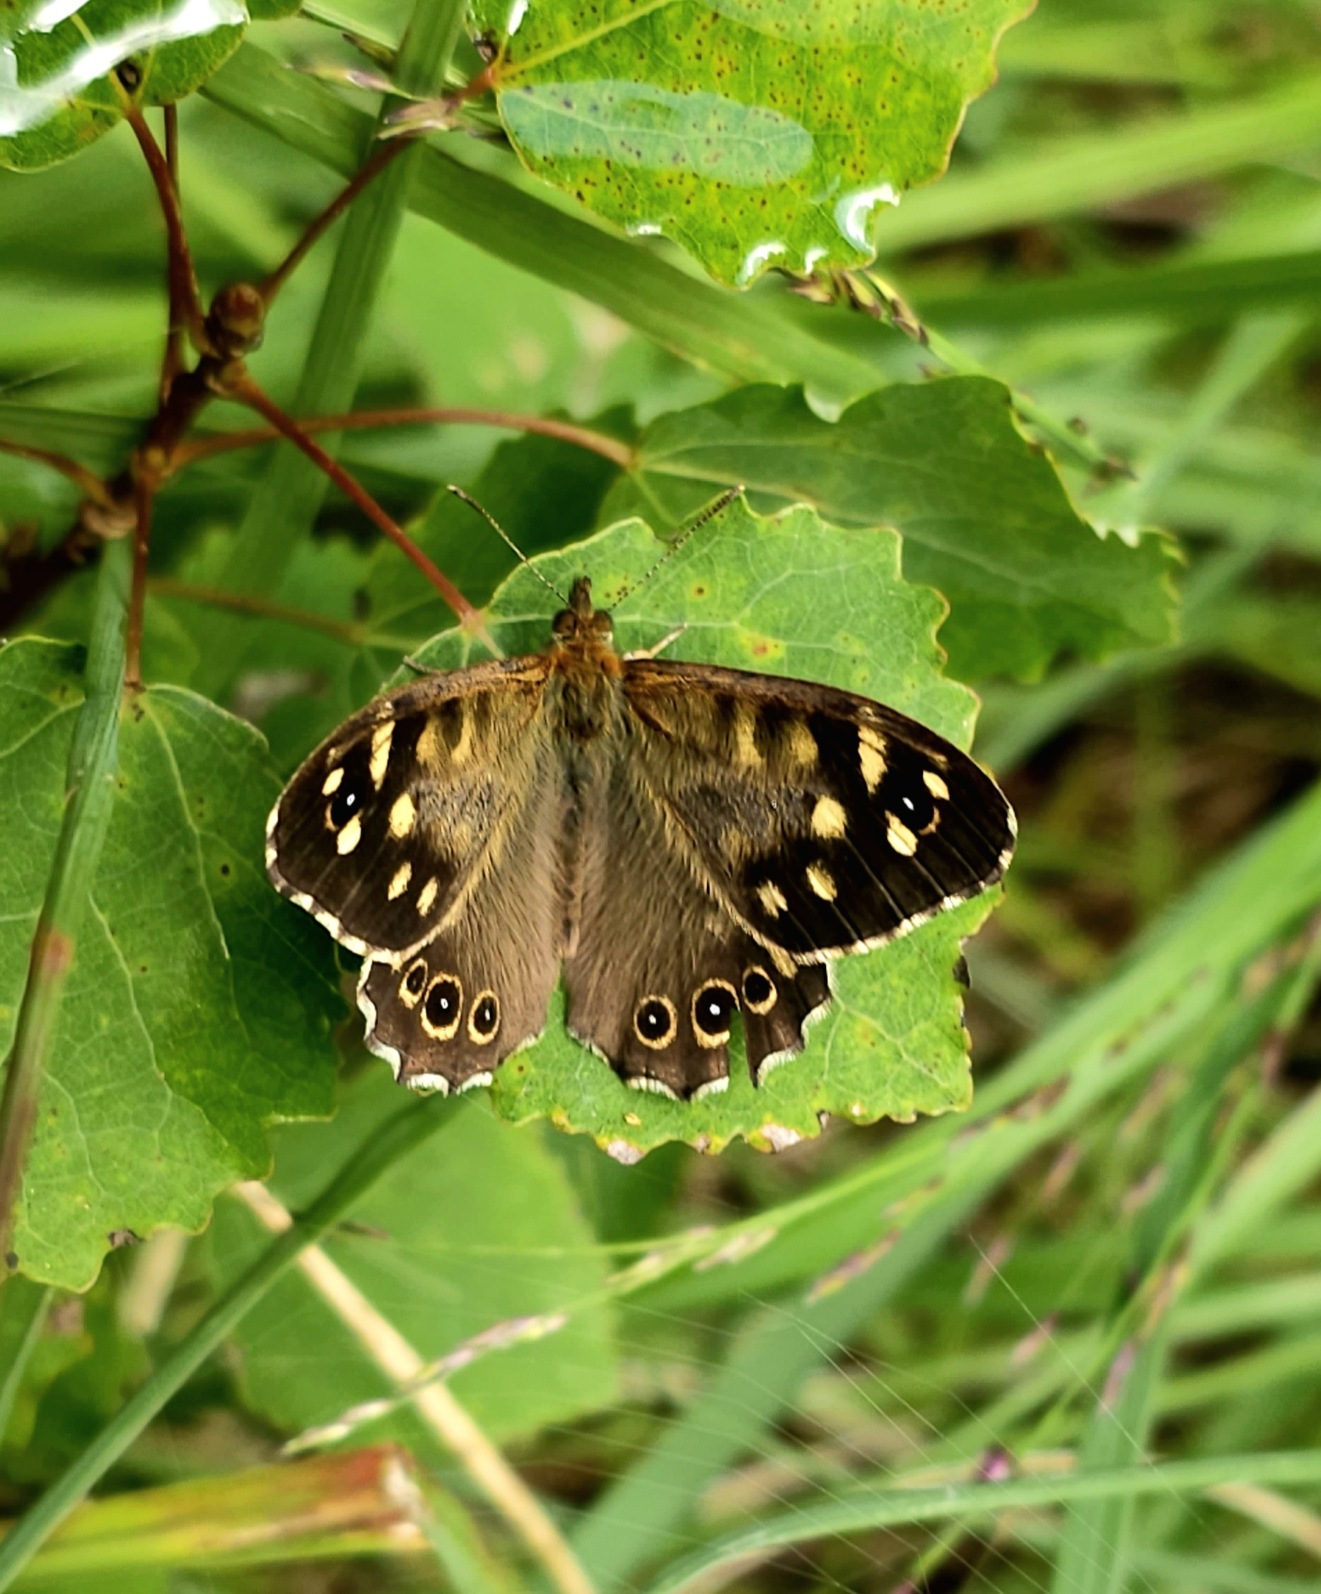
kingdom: Animalia
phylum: Arthropoda
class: Insecta
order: Lepidoptera
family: Nymphalidae
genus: Pararge
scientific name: Pararge aegeria
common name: Skovrandøje
